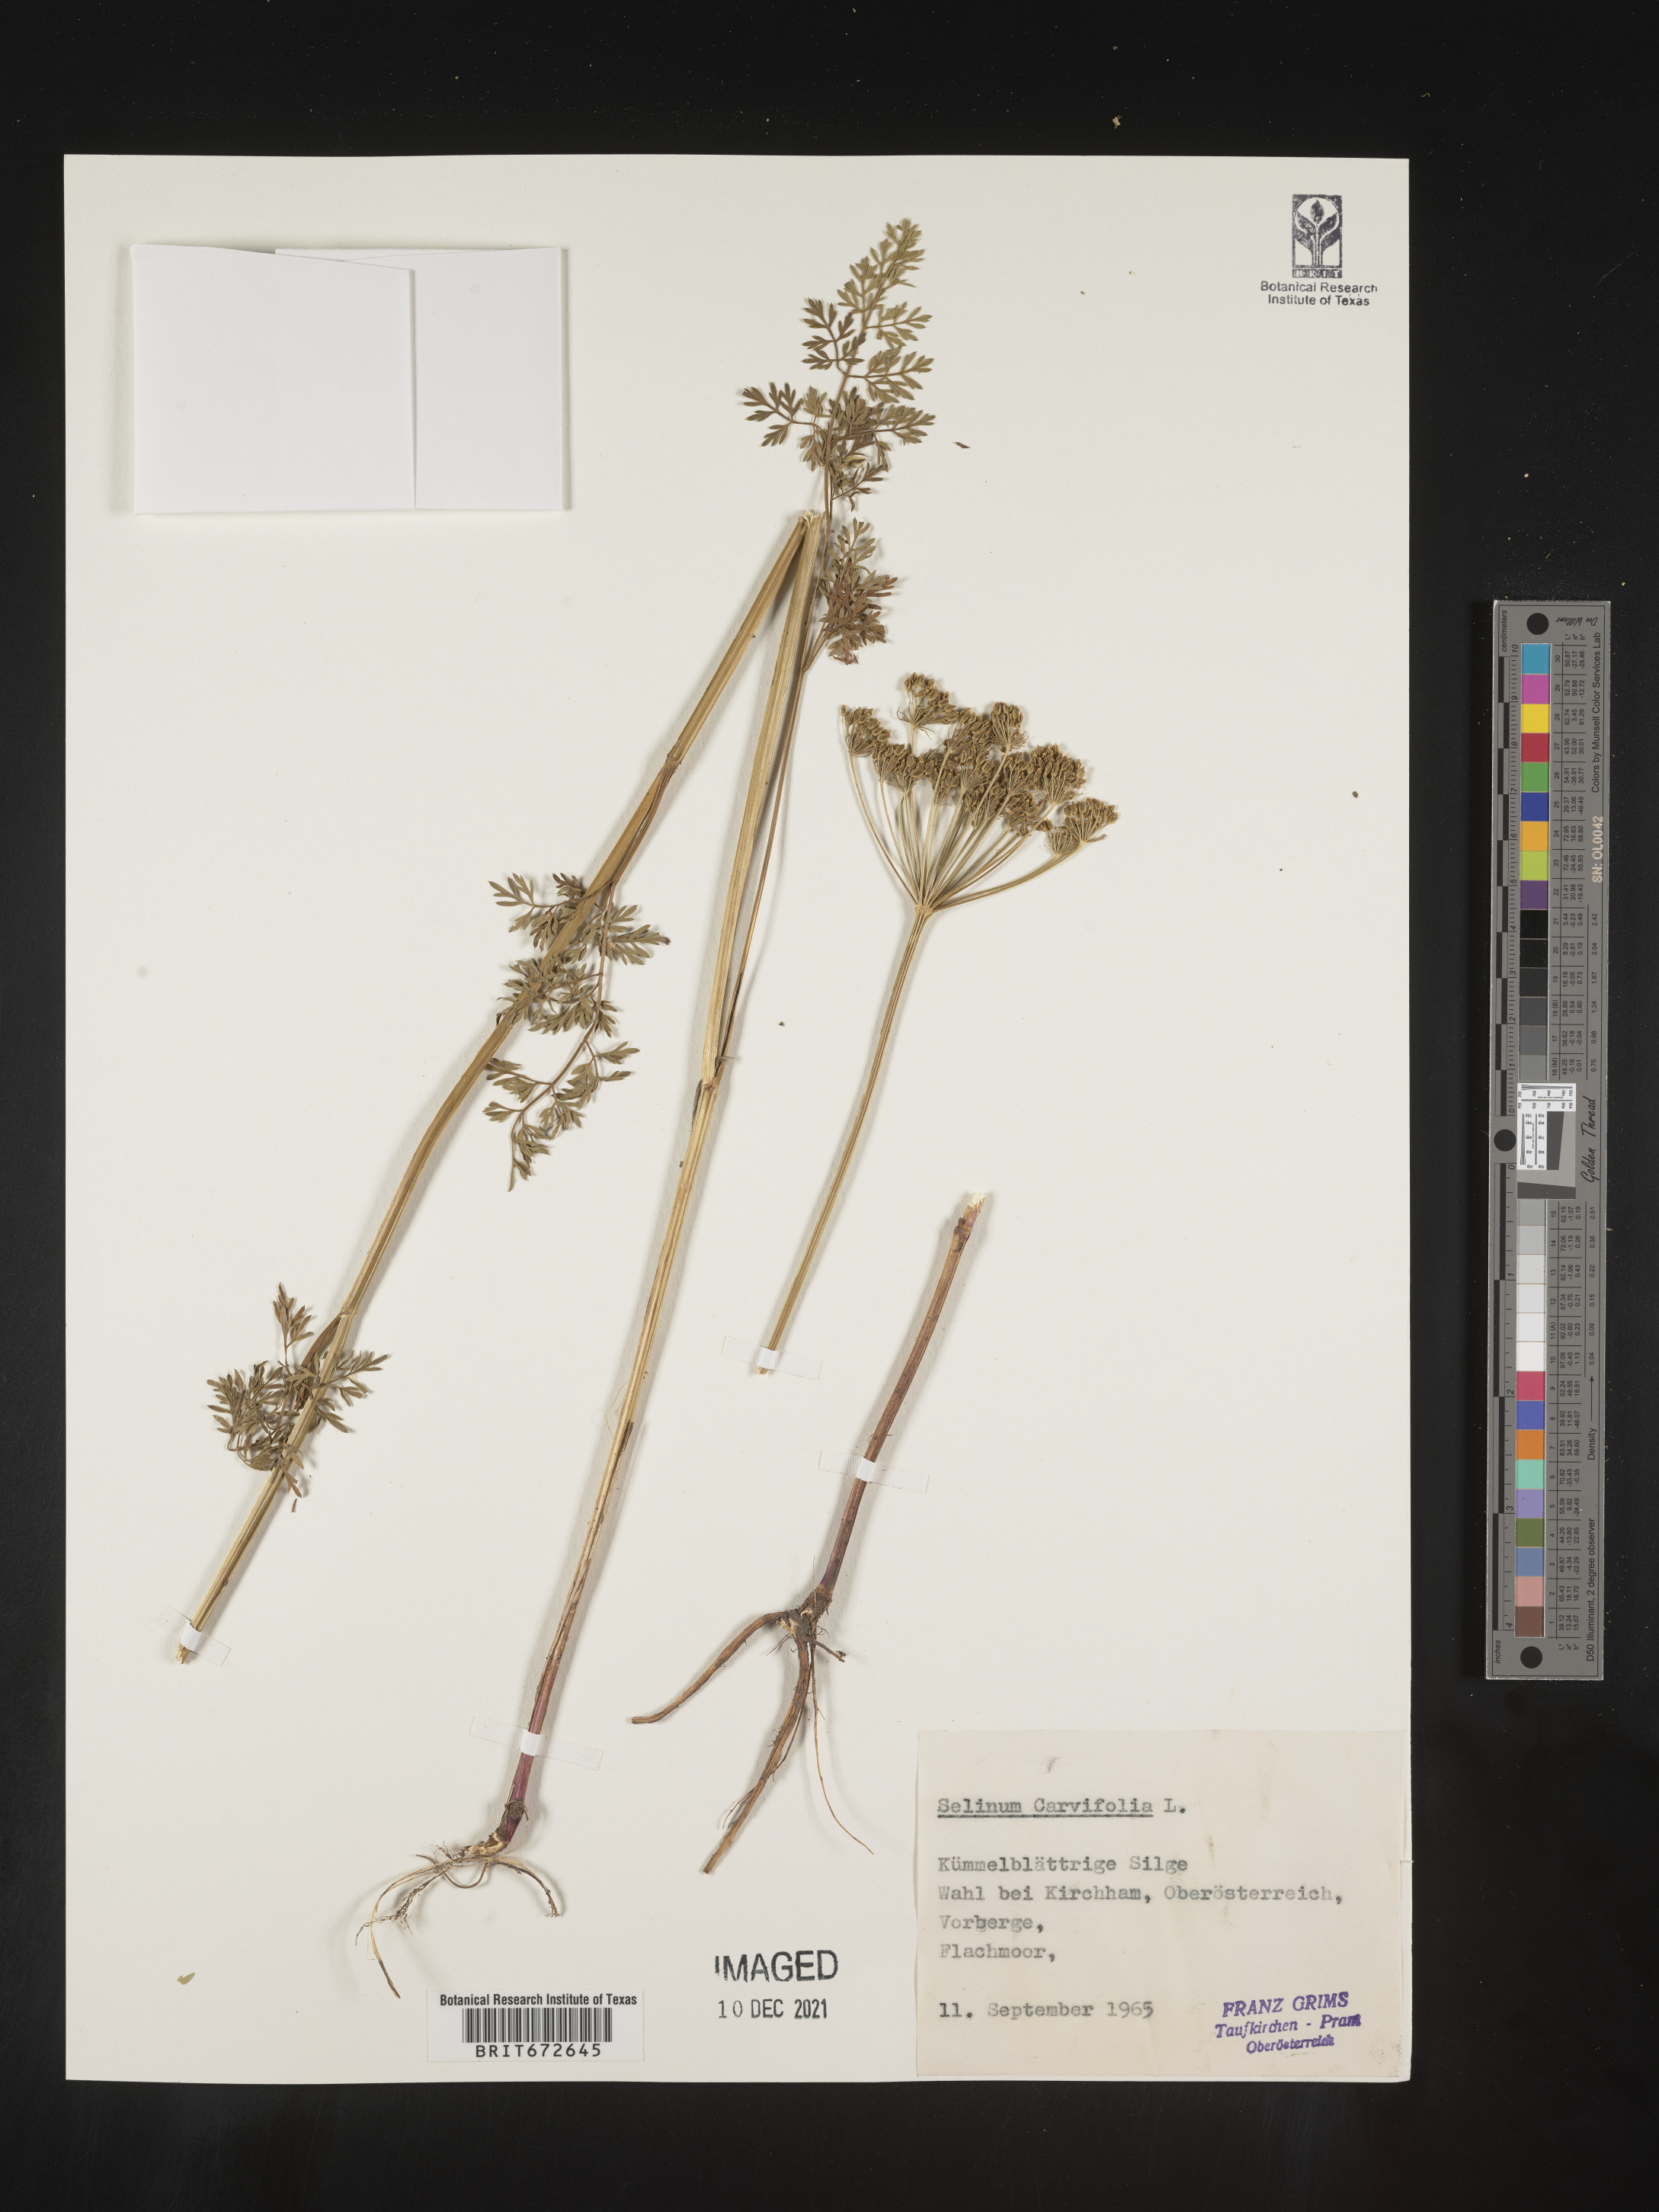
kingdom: Plantae
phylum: Tracheophyta
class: Magnoliopsida
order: Apiales
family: Apiaceae
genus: Selinum
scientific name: Selinum
